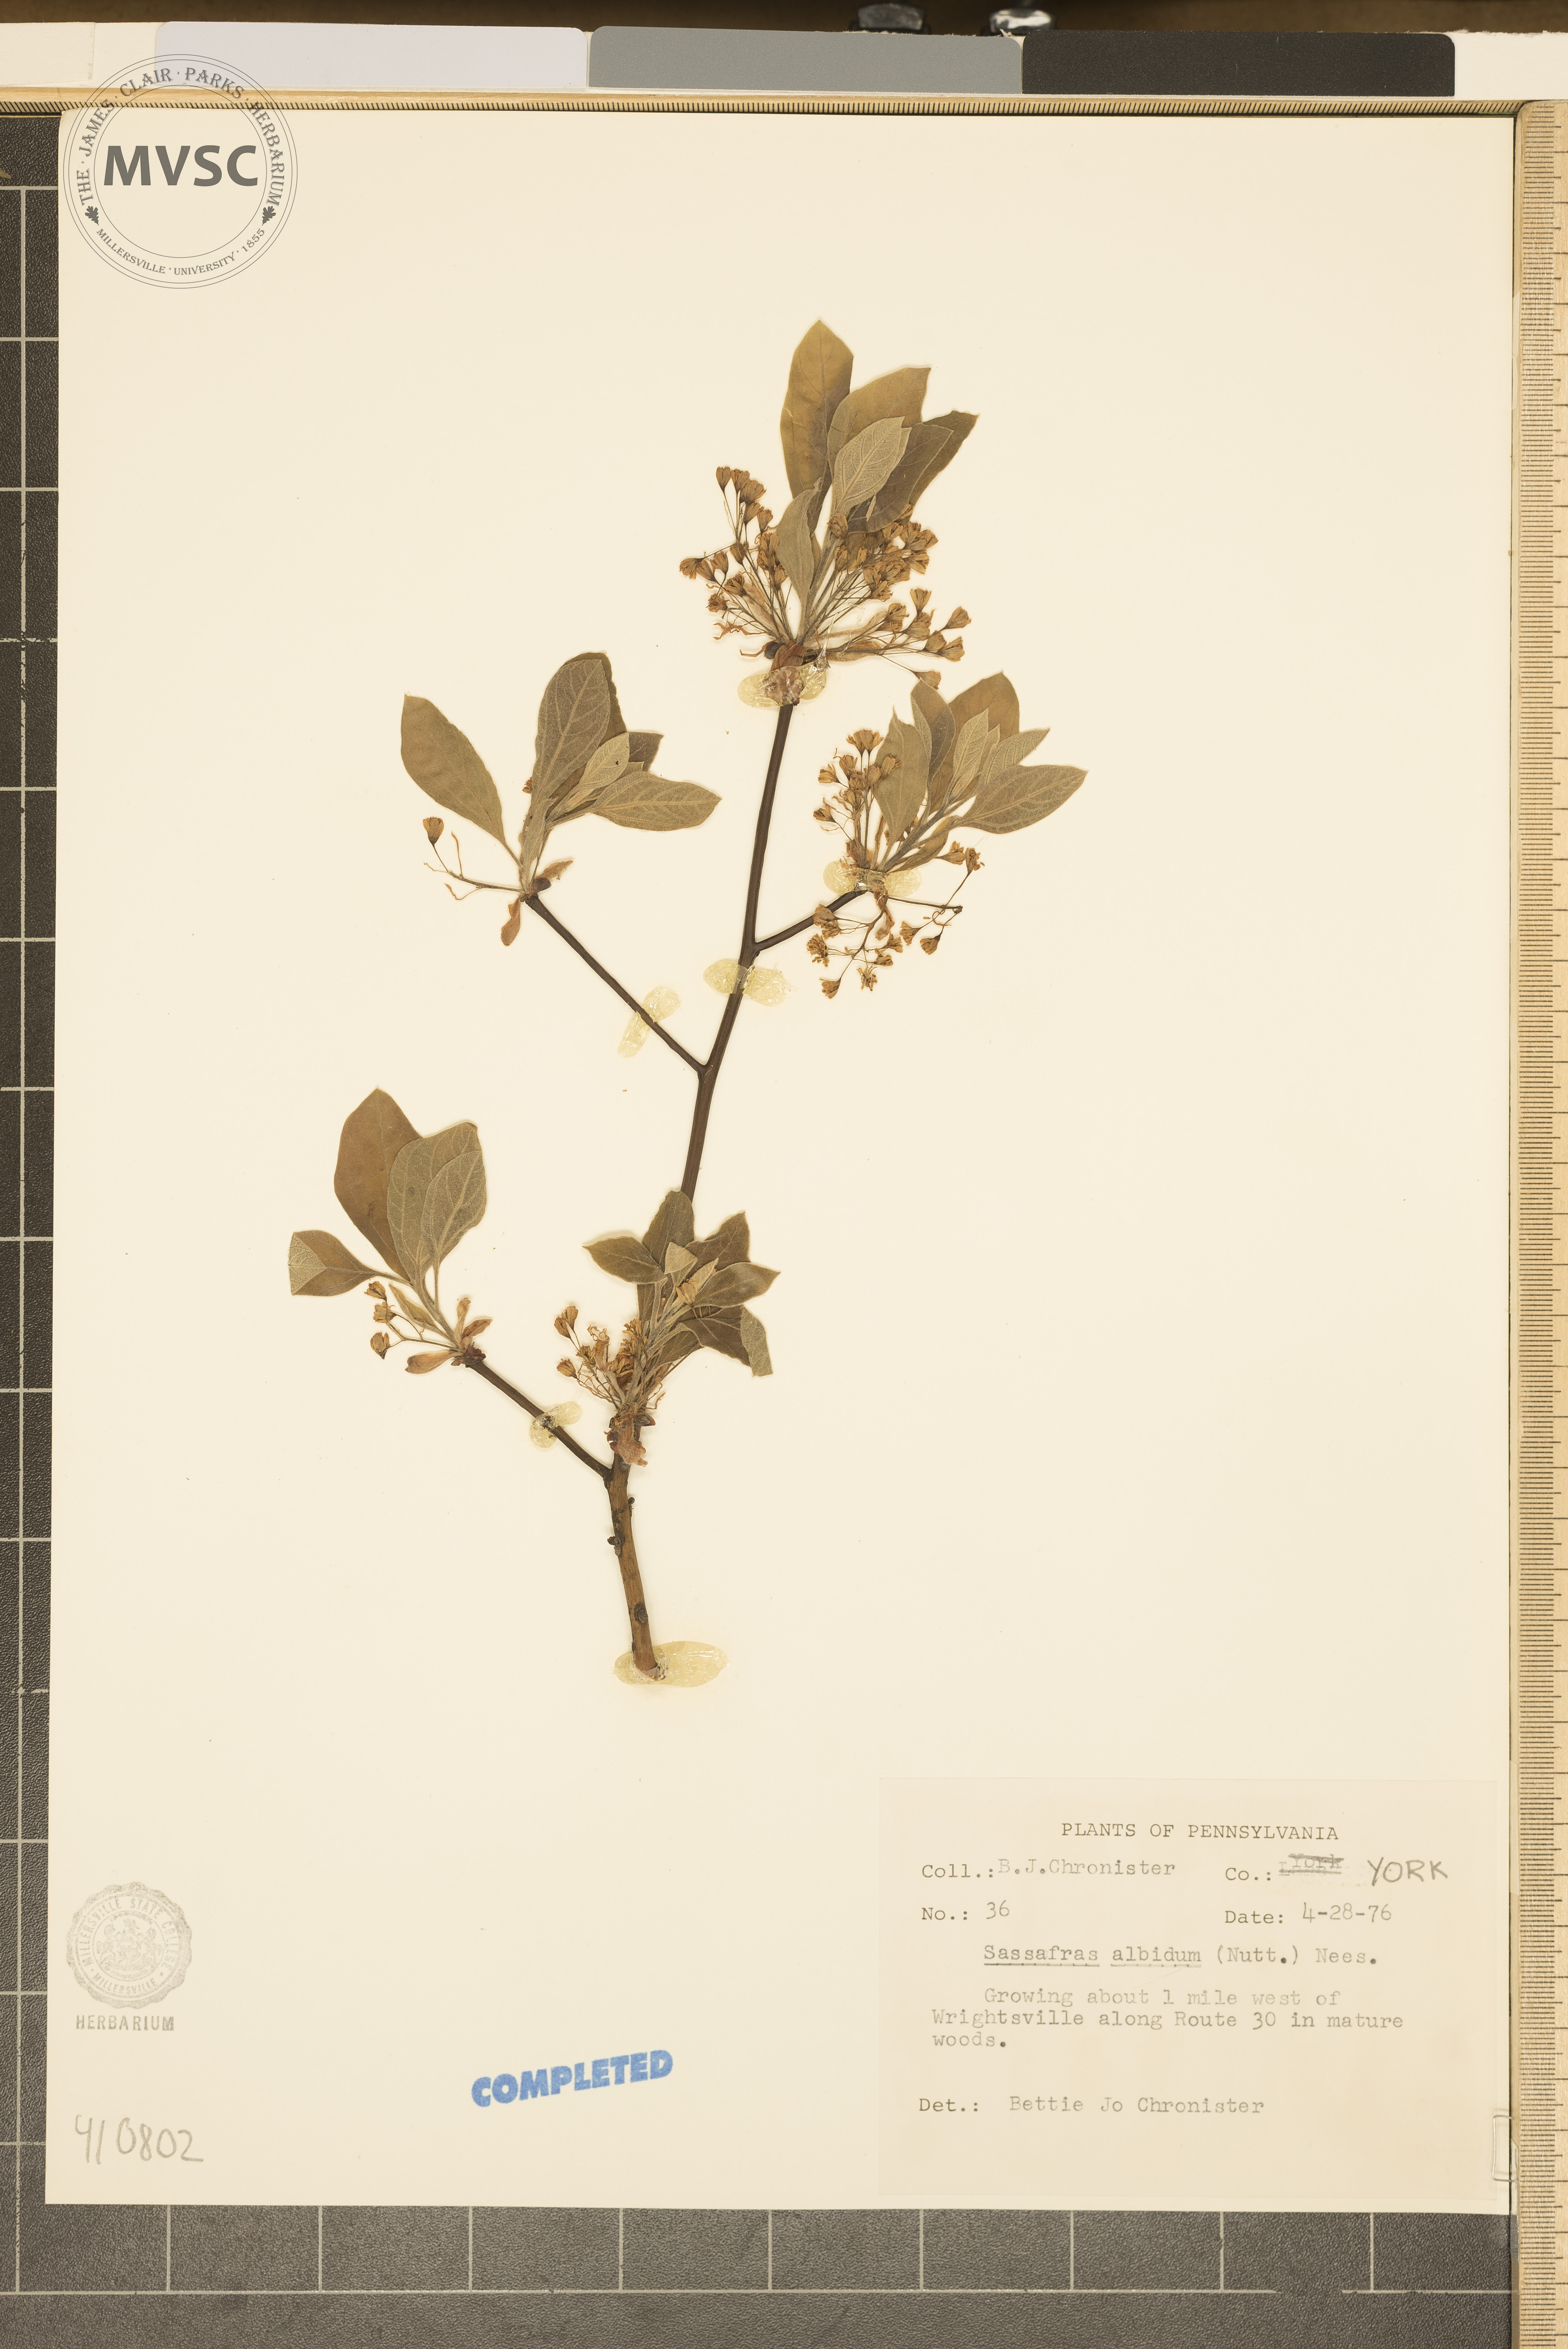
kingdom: Plantae
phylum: Tracheophyta
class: Magnoliopsida
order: Laurales
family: Lauraceae
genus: Sassafras
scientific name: Sassafras albidum
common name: Sassafras
